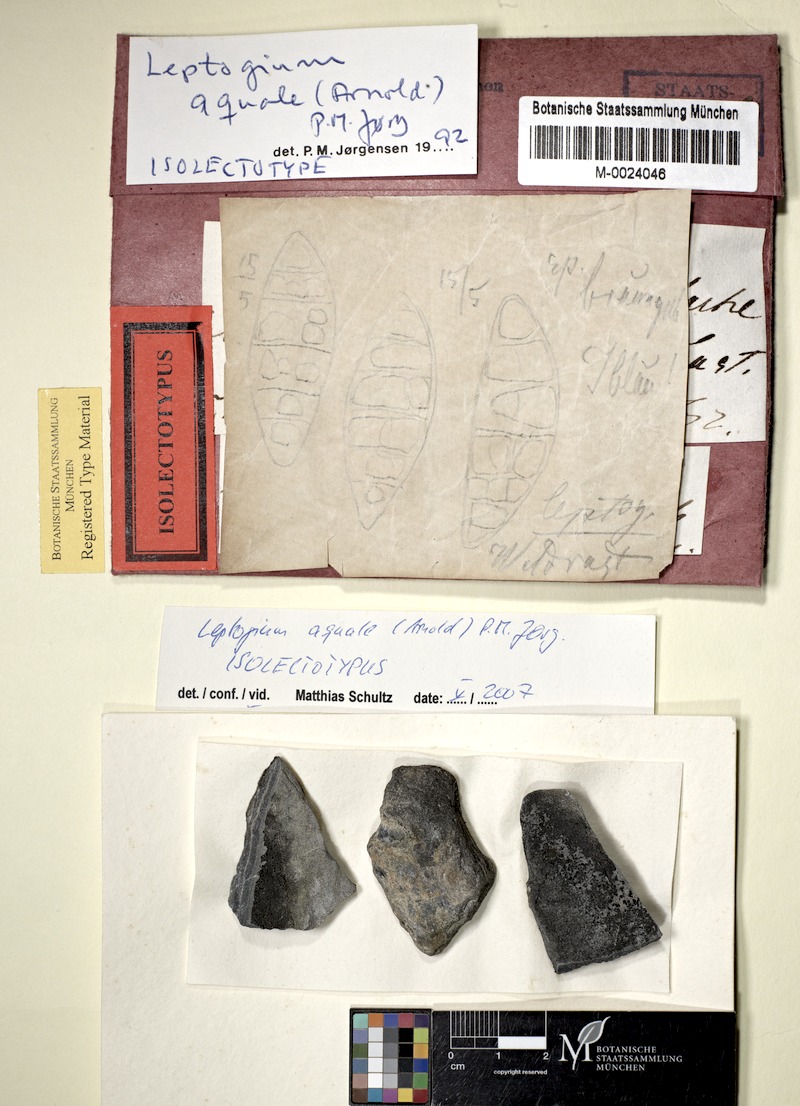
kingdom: Fungi
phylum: Ascomycota
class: Lecanoromycetes
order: Peltigerales
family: Collemataceae
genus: Scytinium
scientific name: Scytinium aquale
